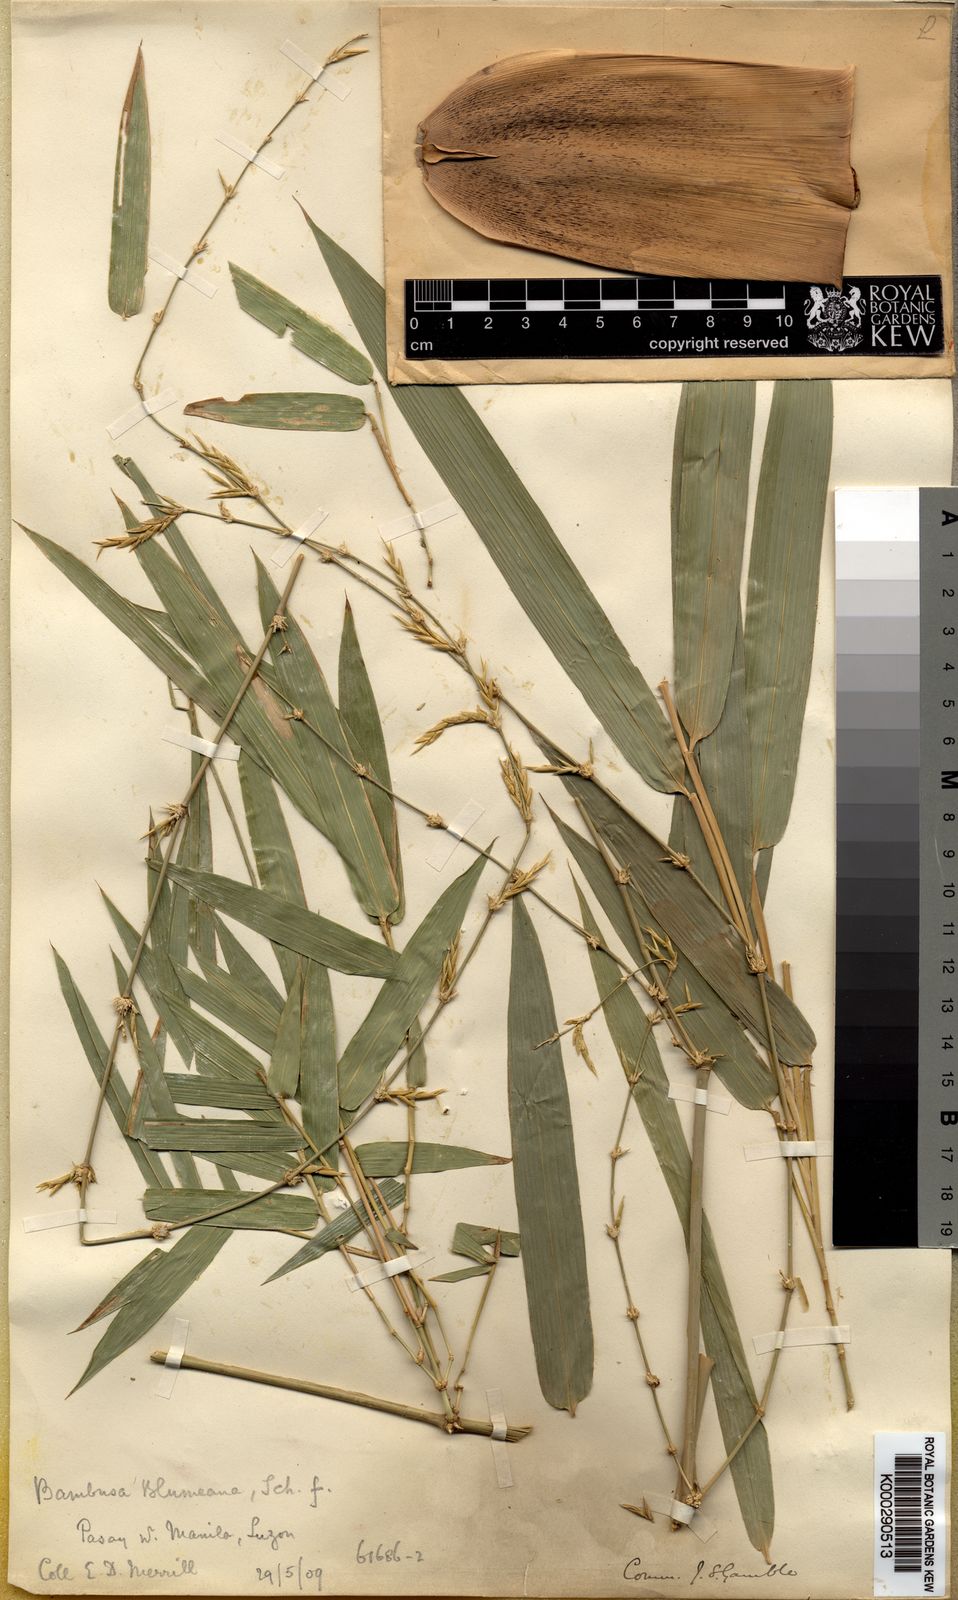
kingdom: Plantae
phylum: Tracheophyta
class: Liliopsida
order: Poales
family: Poaceae
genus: Bambusa
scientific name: Bambusa spinosa
